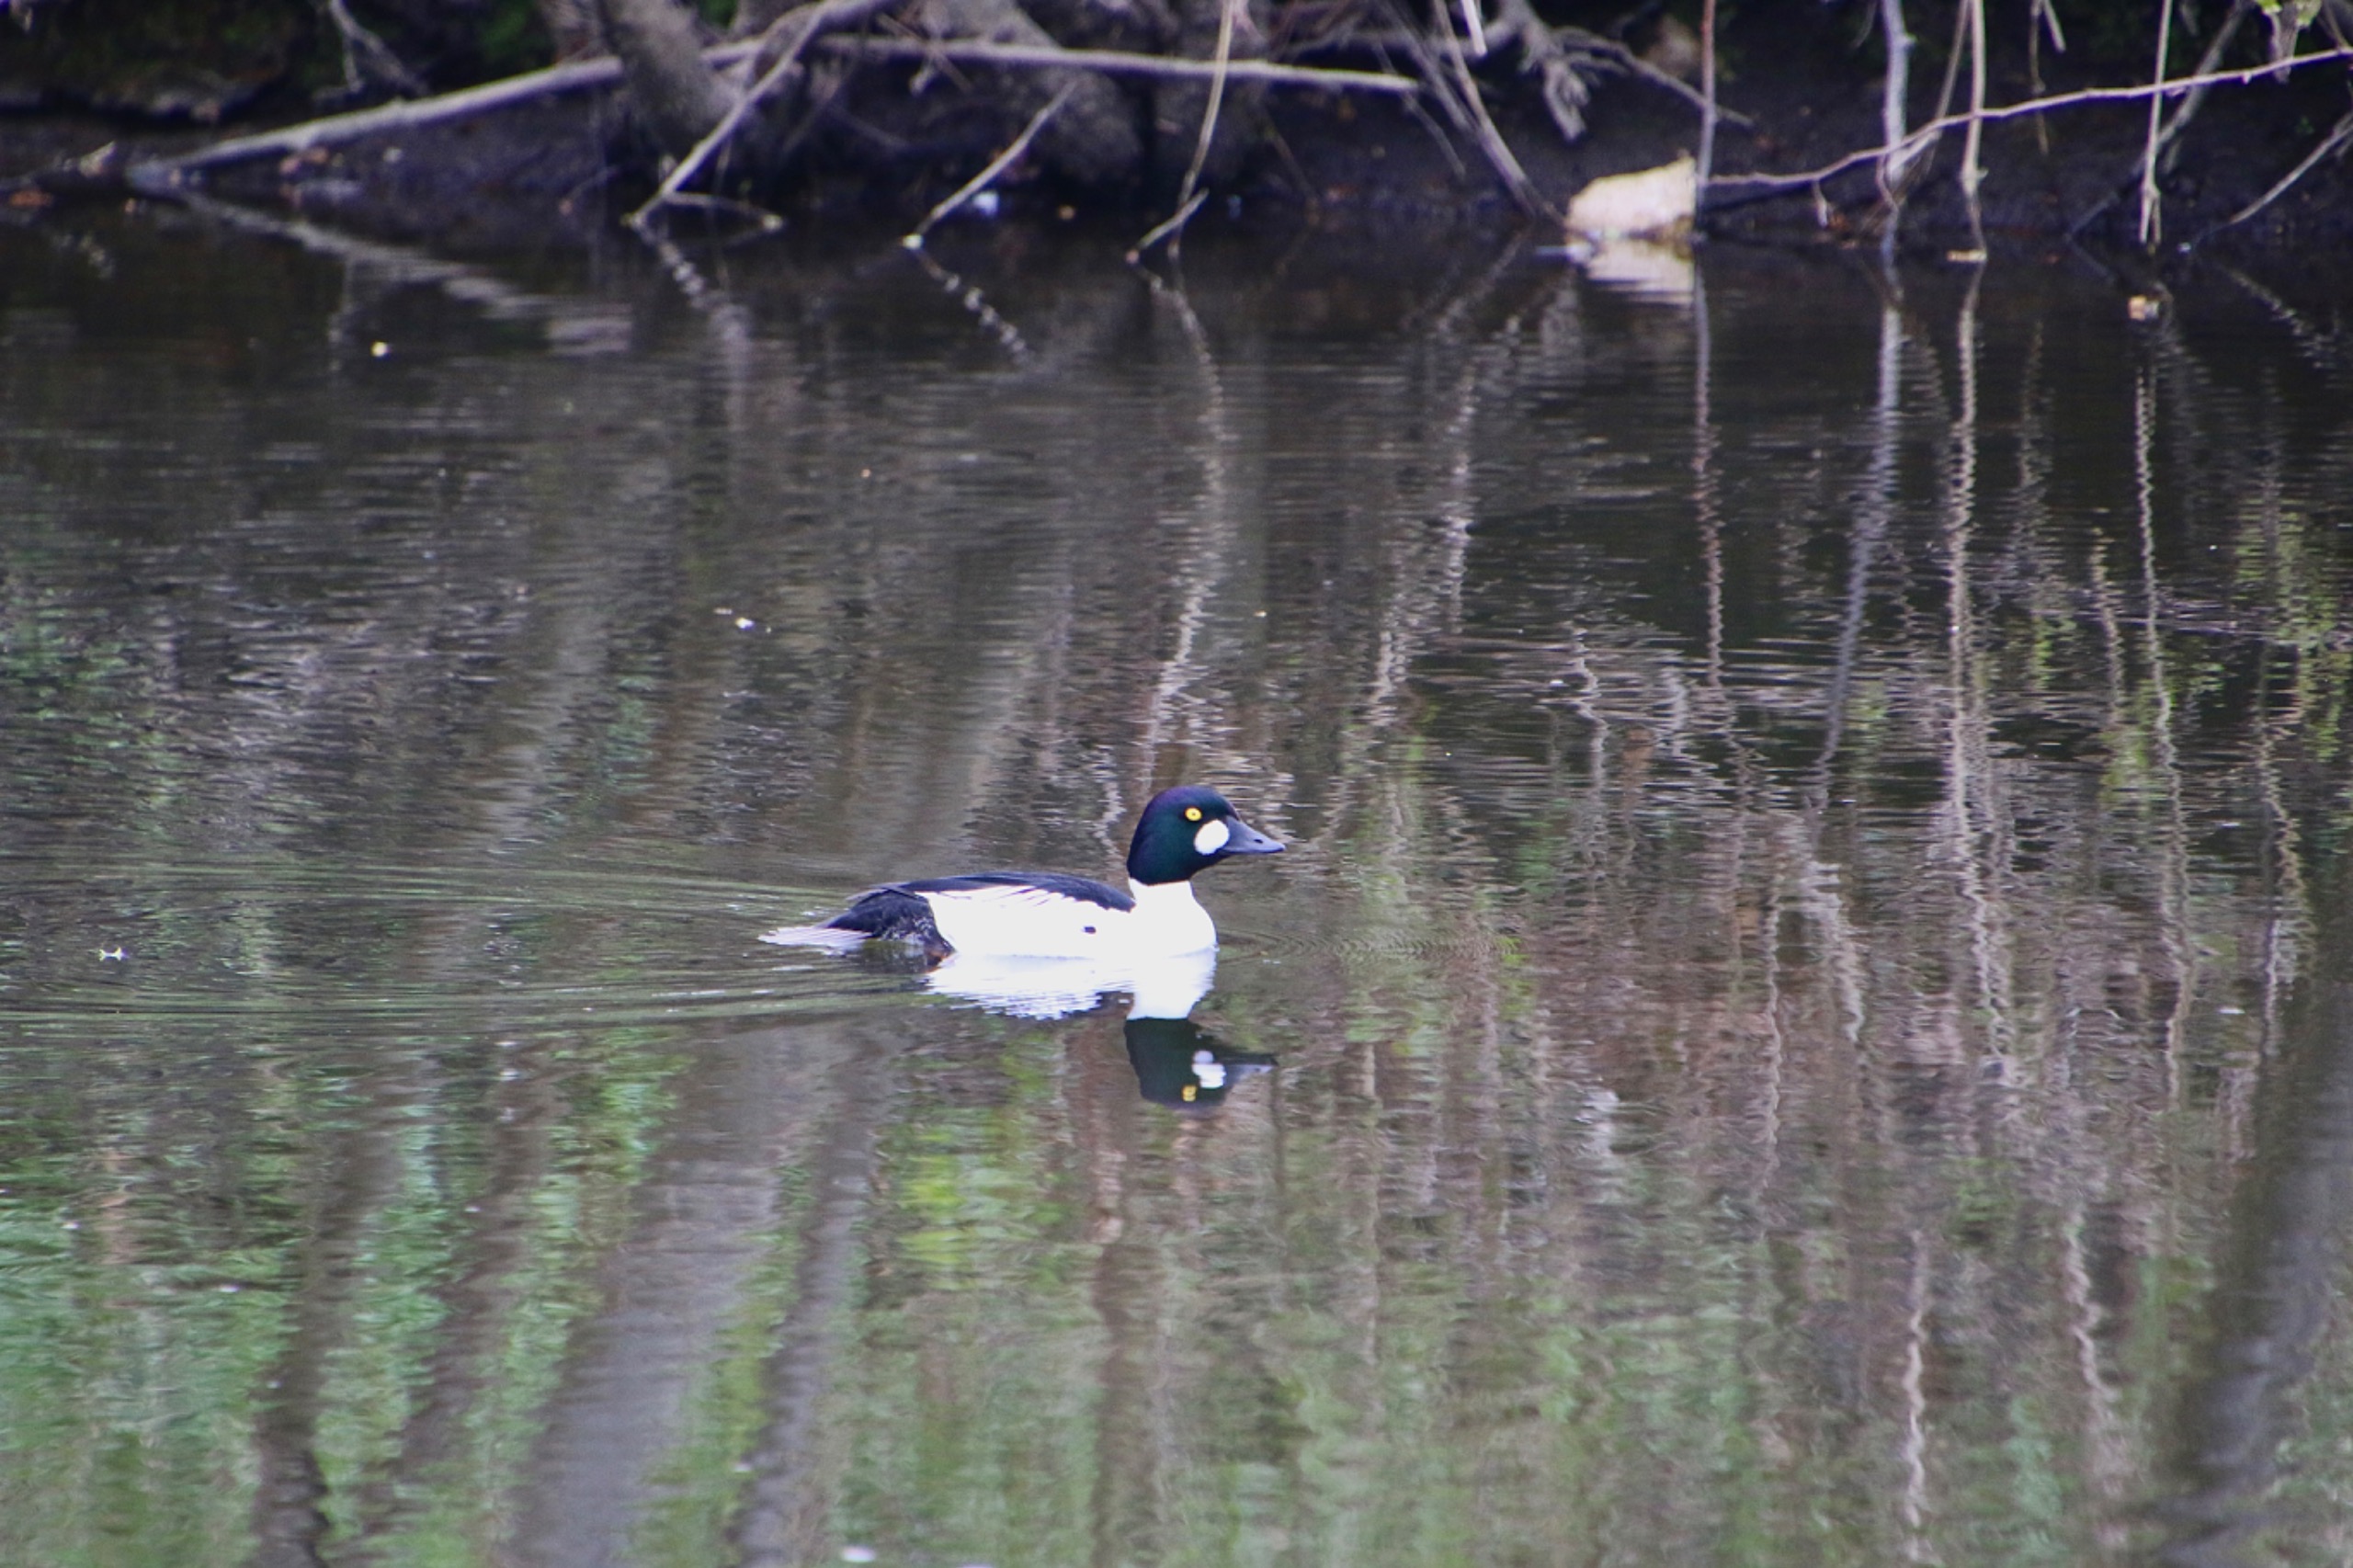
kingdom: Animalia
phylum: Chordata
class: Aves
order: Anseriformes
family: Anatidae
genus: Bucephala
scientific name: Bucephala clangula
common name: Hvinand
